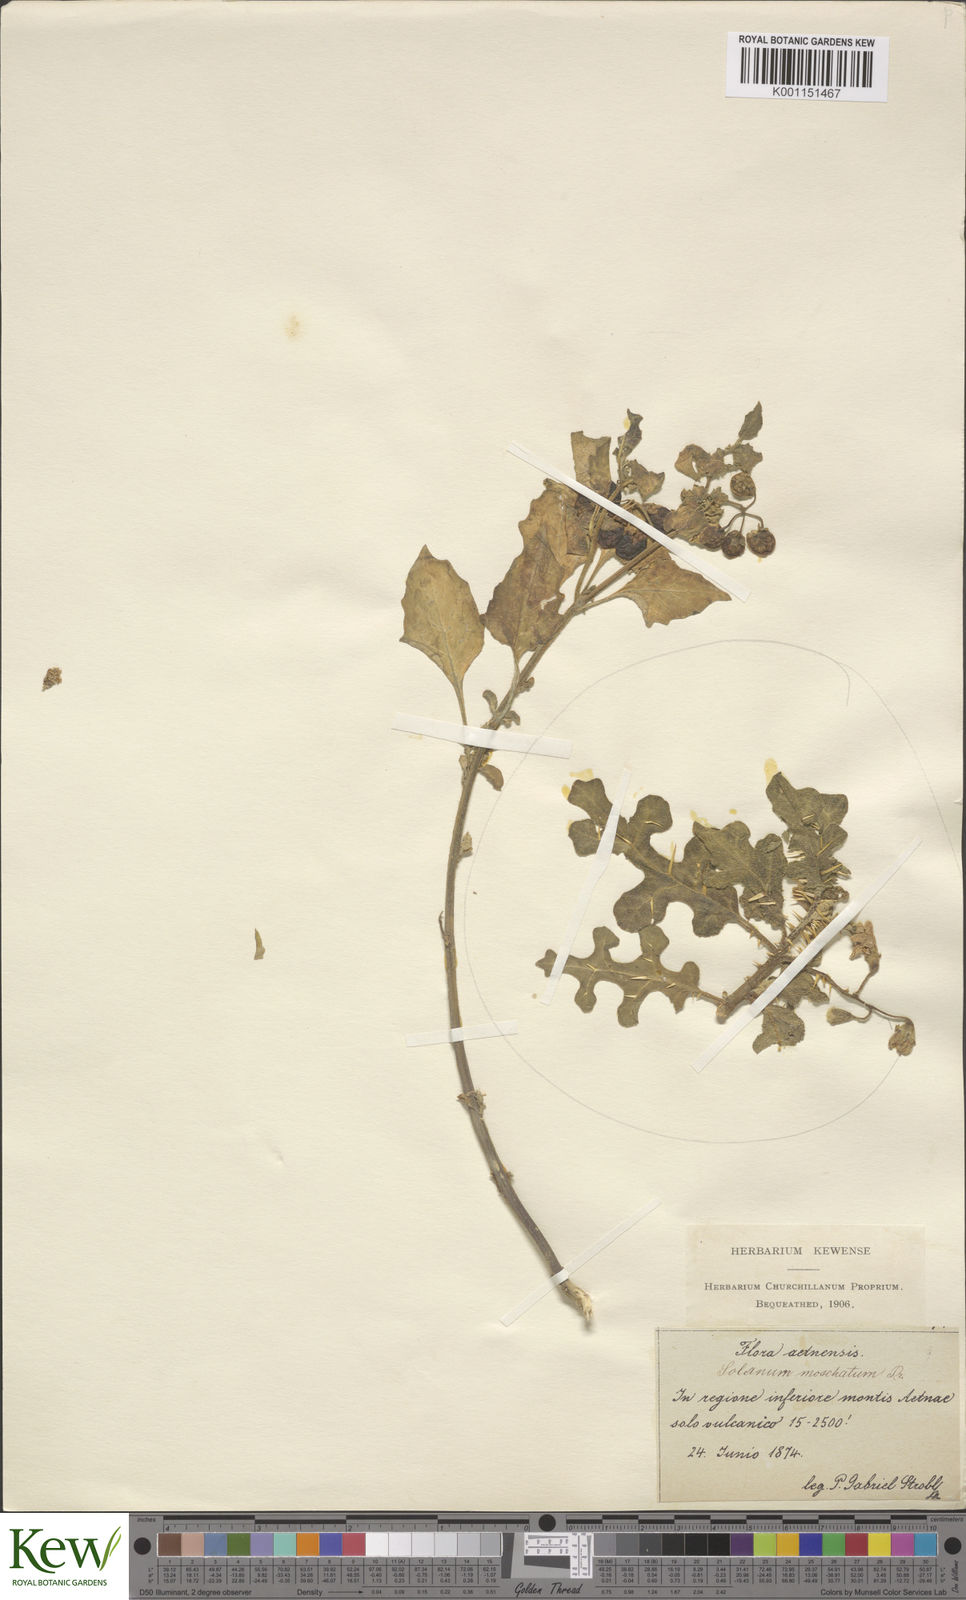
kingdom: Plantae
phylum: Tracheophyta
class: Magnoliopsida
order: Solanales
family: Solanaceae
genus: Solanum
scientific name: Solanum villosum
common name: Red nightshade
